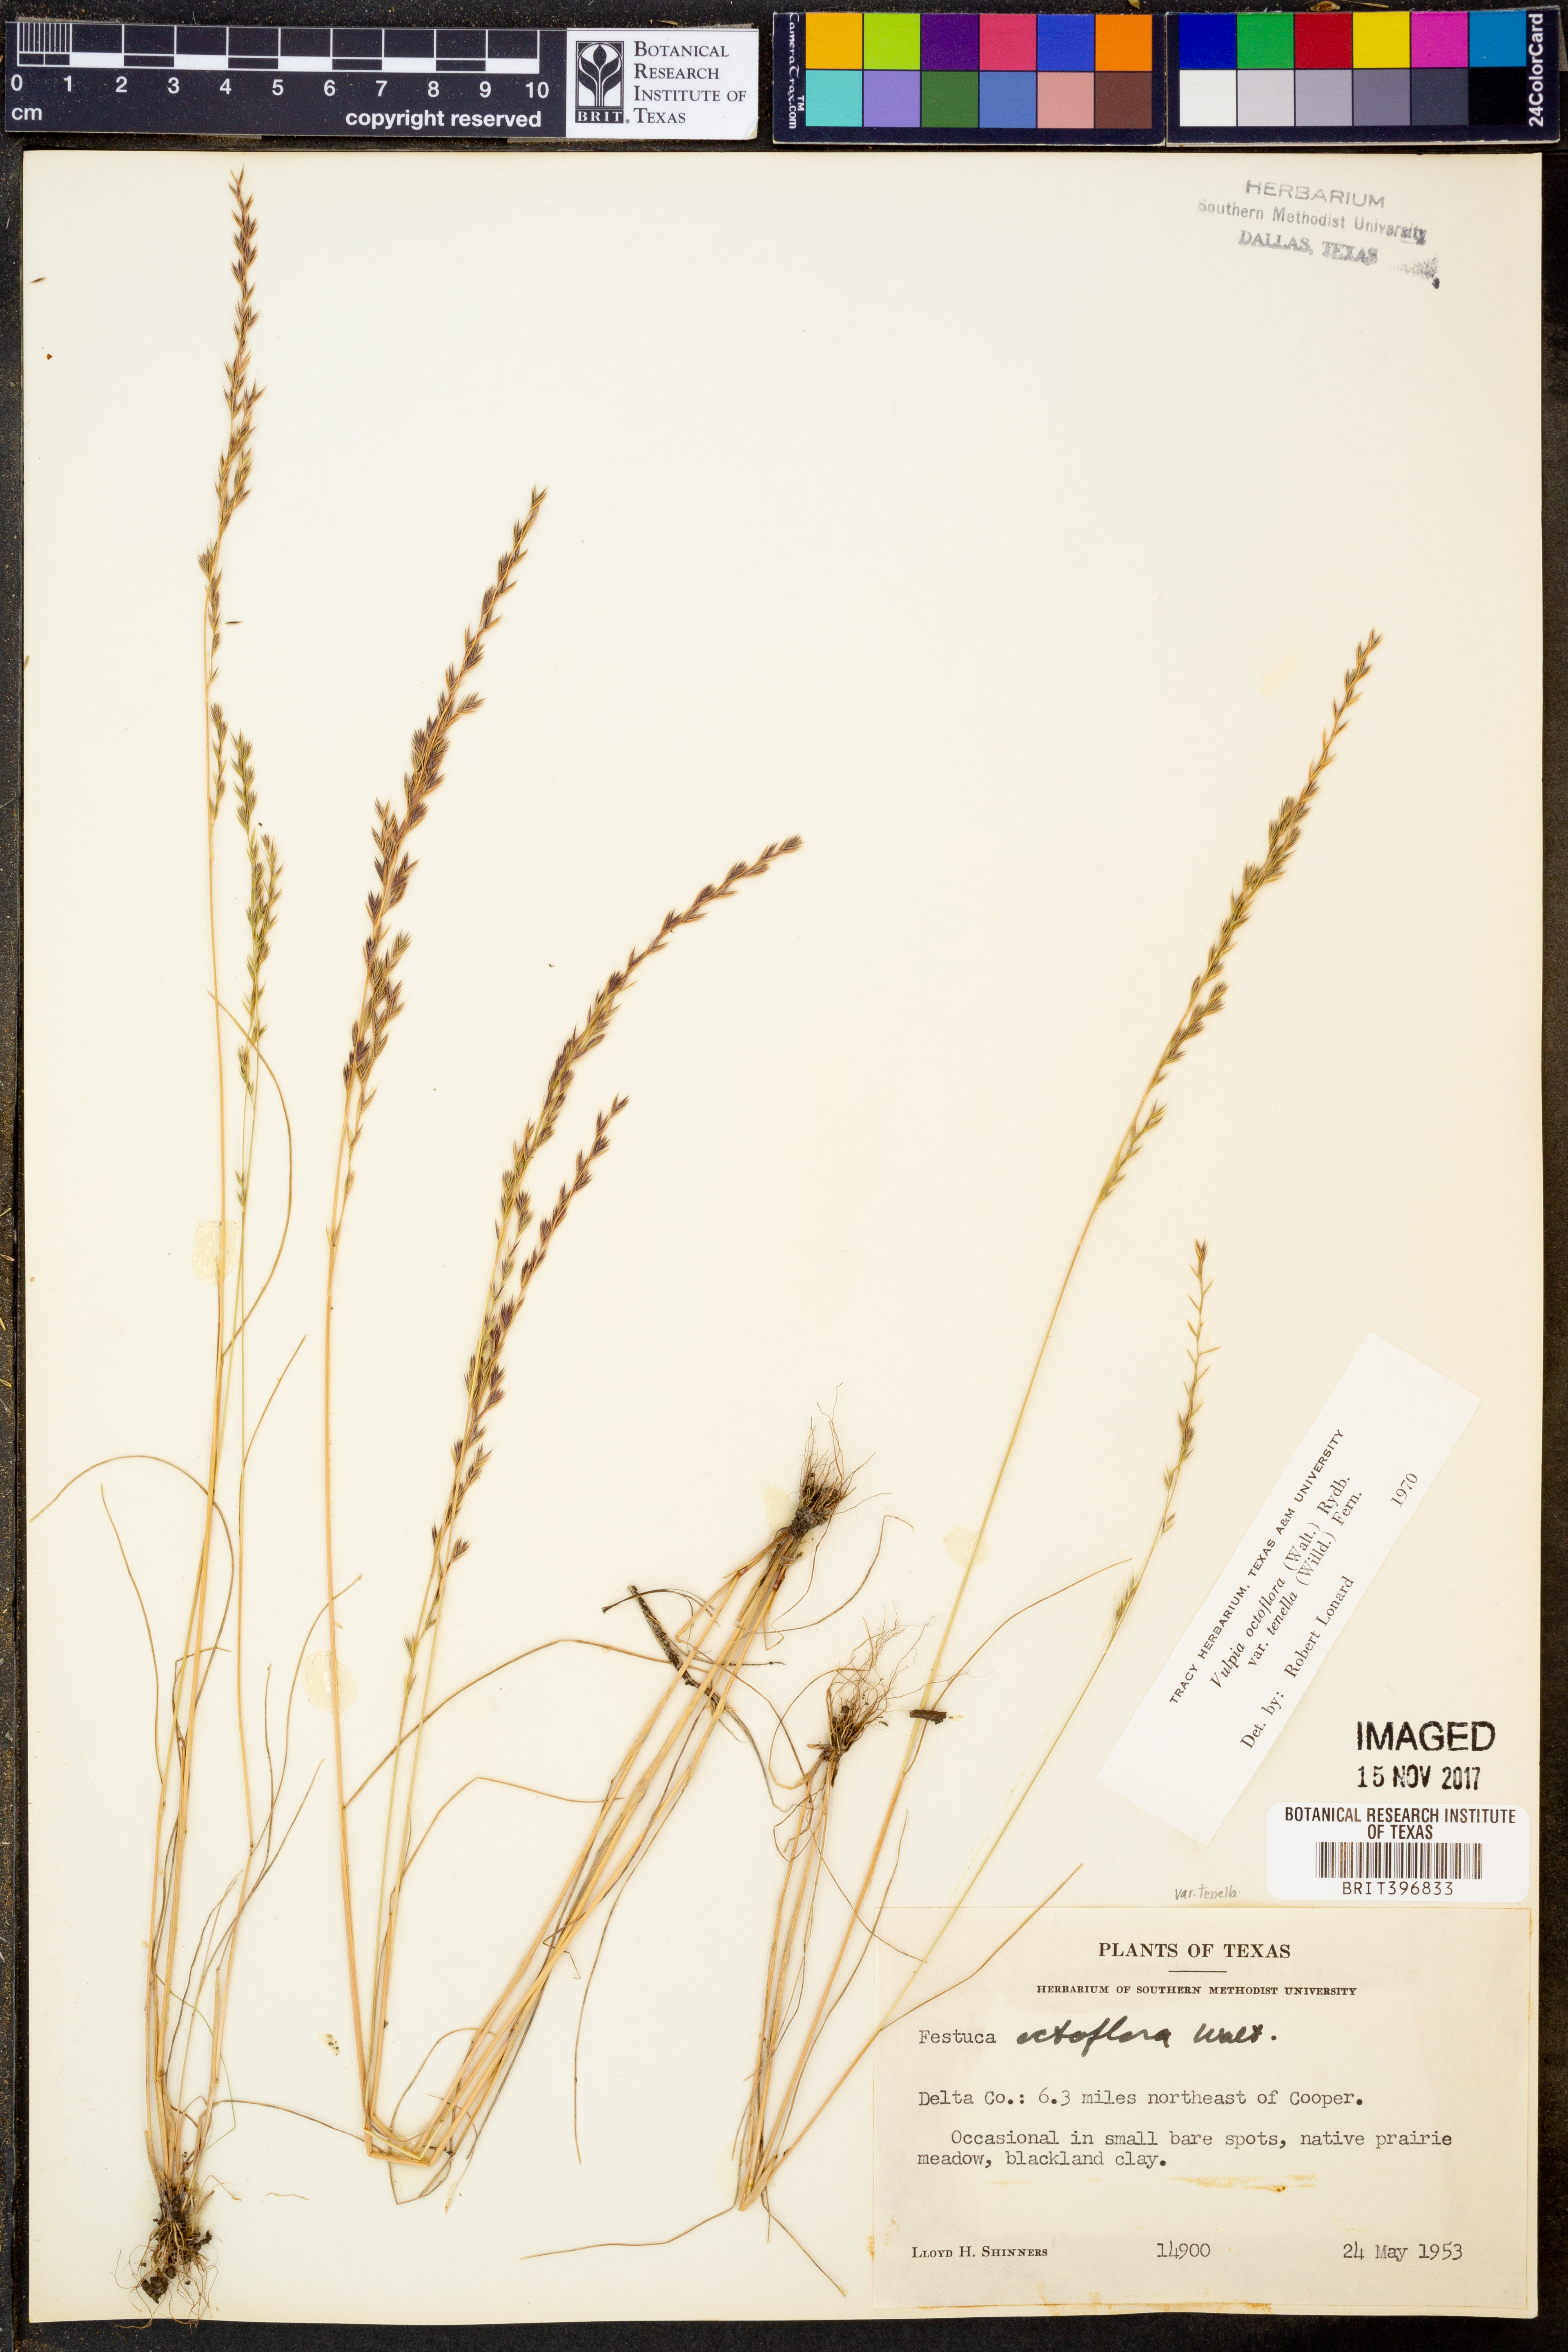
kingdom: Plantae
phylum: Tracheophyta
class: Liliopsida
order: Poales
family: Poaceae
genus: Festuca
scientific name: Festuca octoflora
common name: Sixweeks grass
